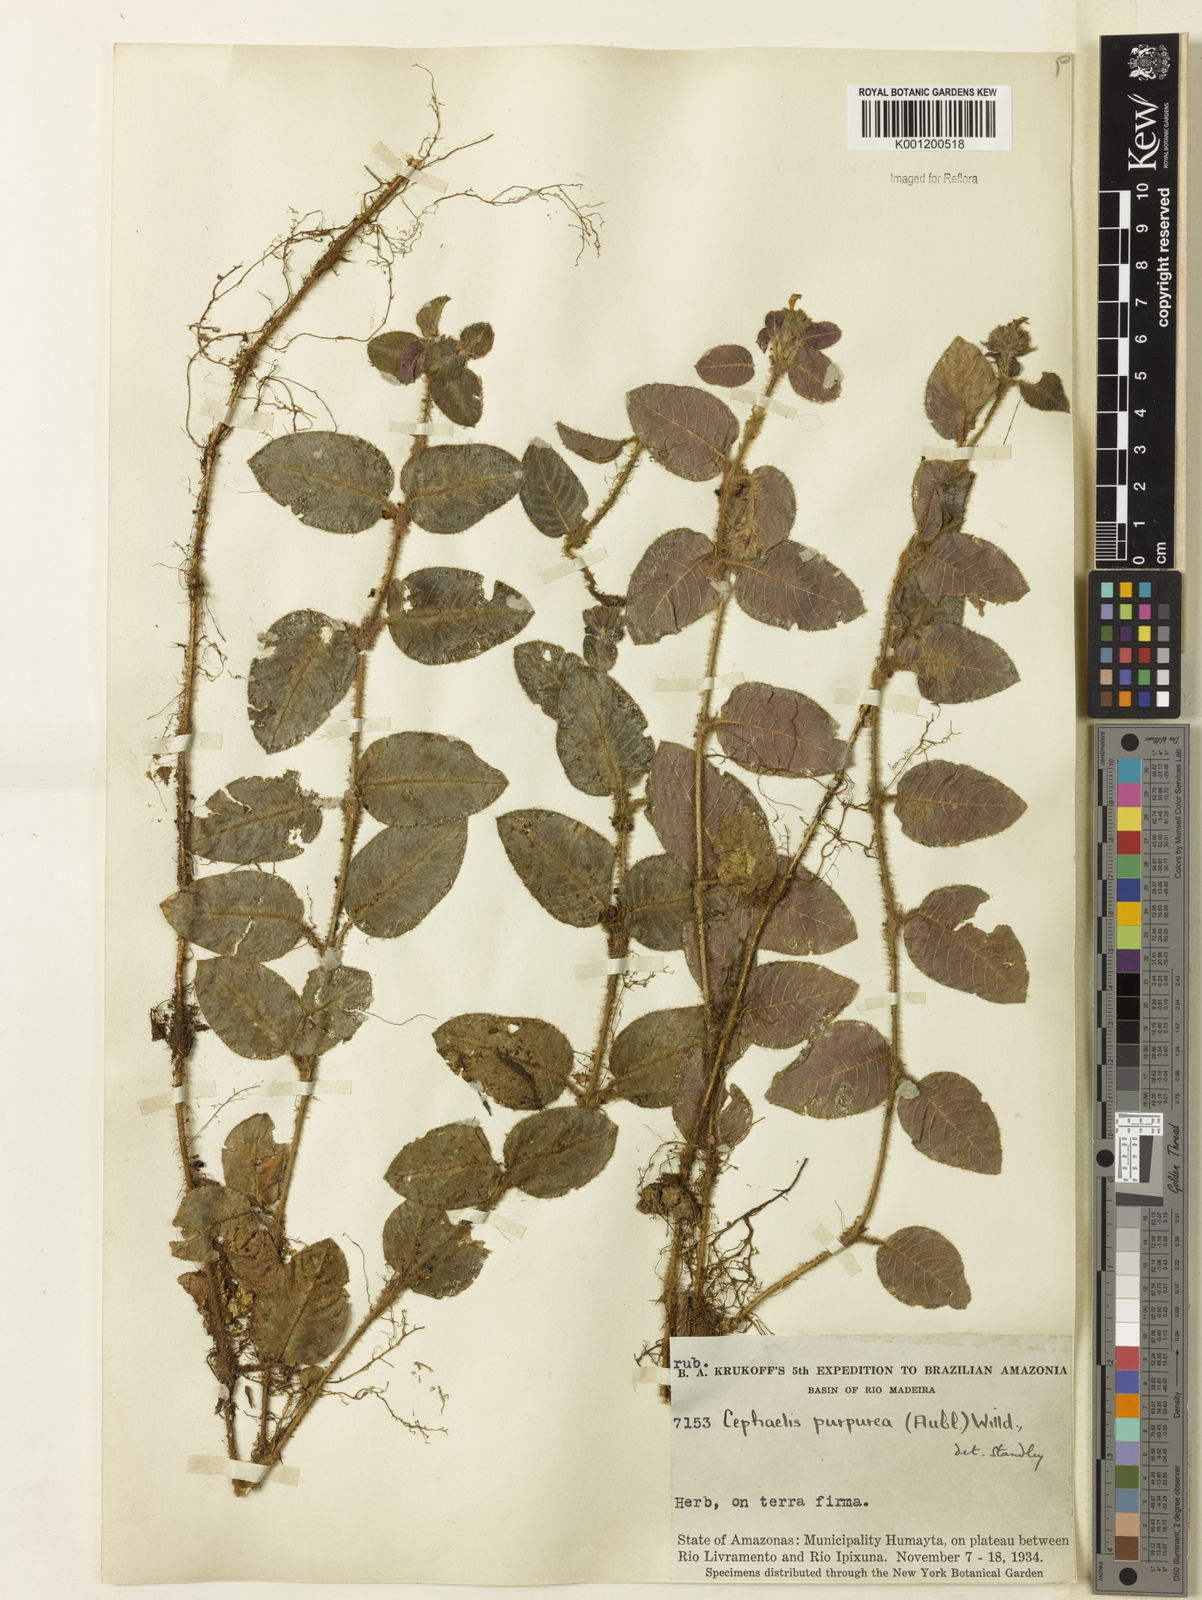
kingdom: Plantae
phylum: Tracheophyta
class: Magnoliopsida
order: Gentianales
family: Rubiaceae
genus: Palicourea
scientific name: Palicourea debilis
